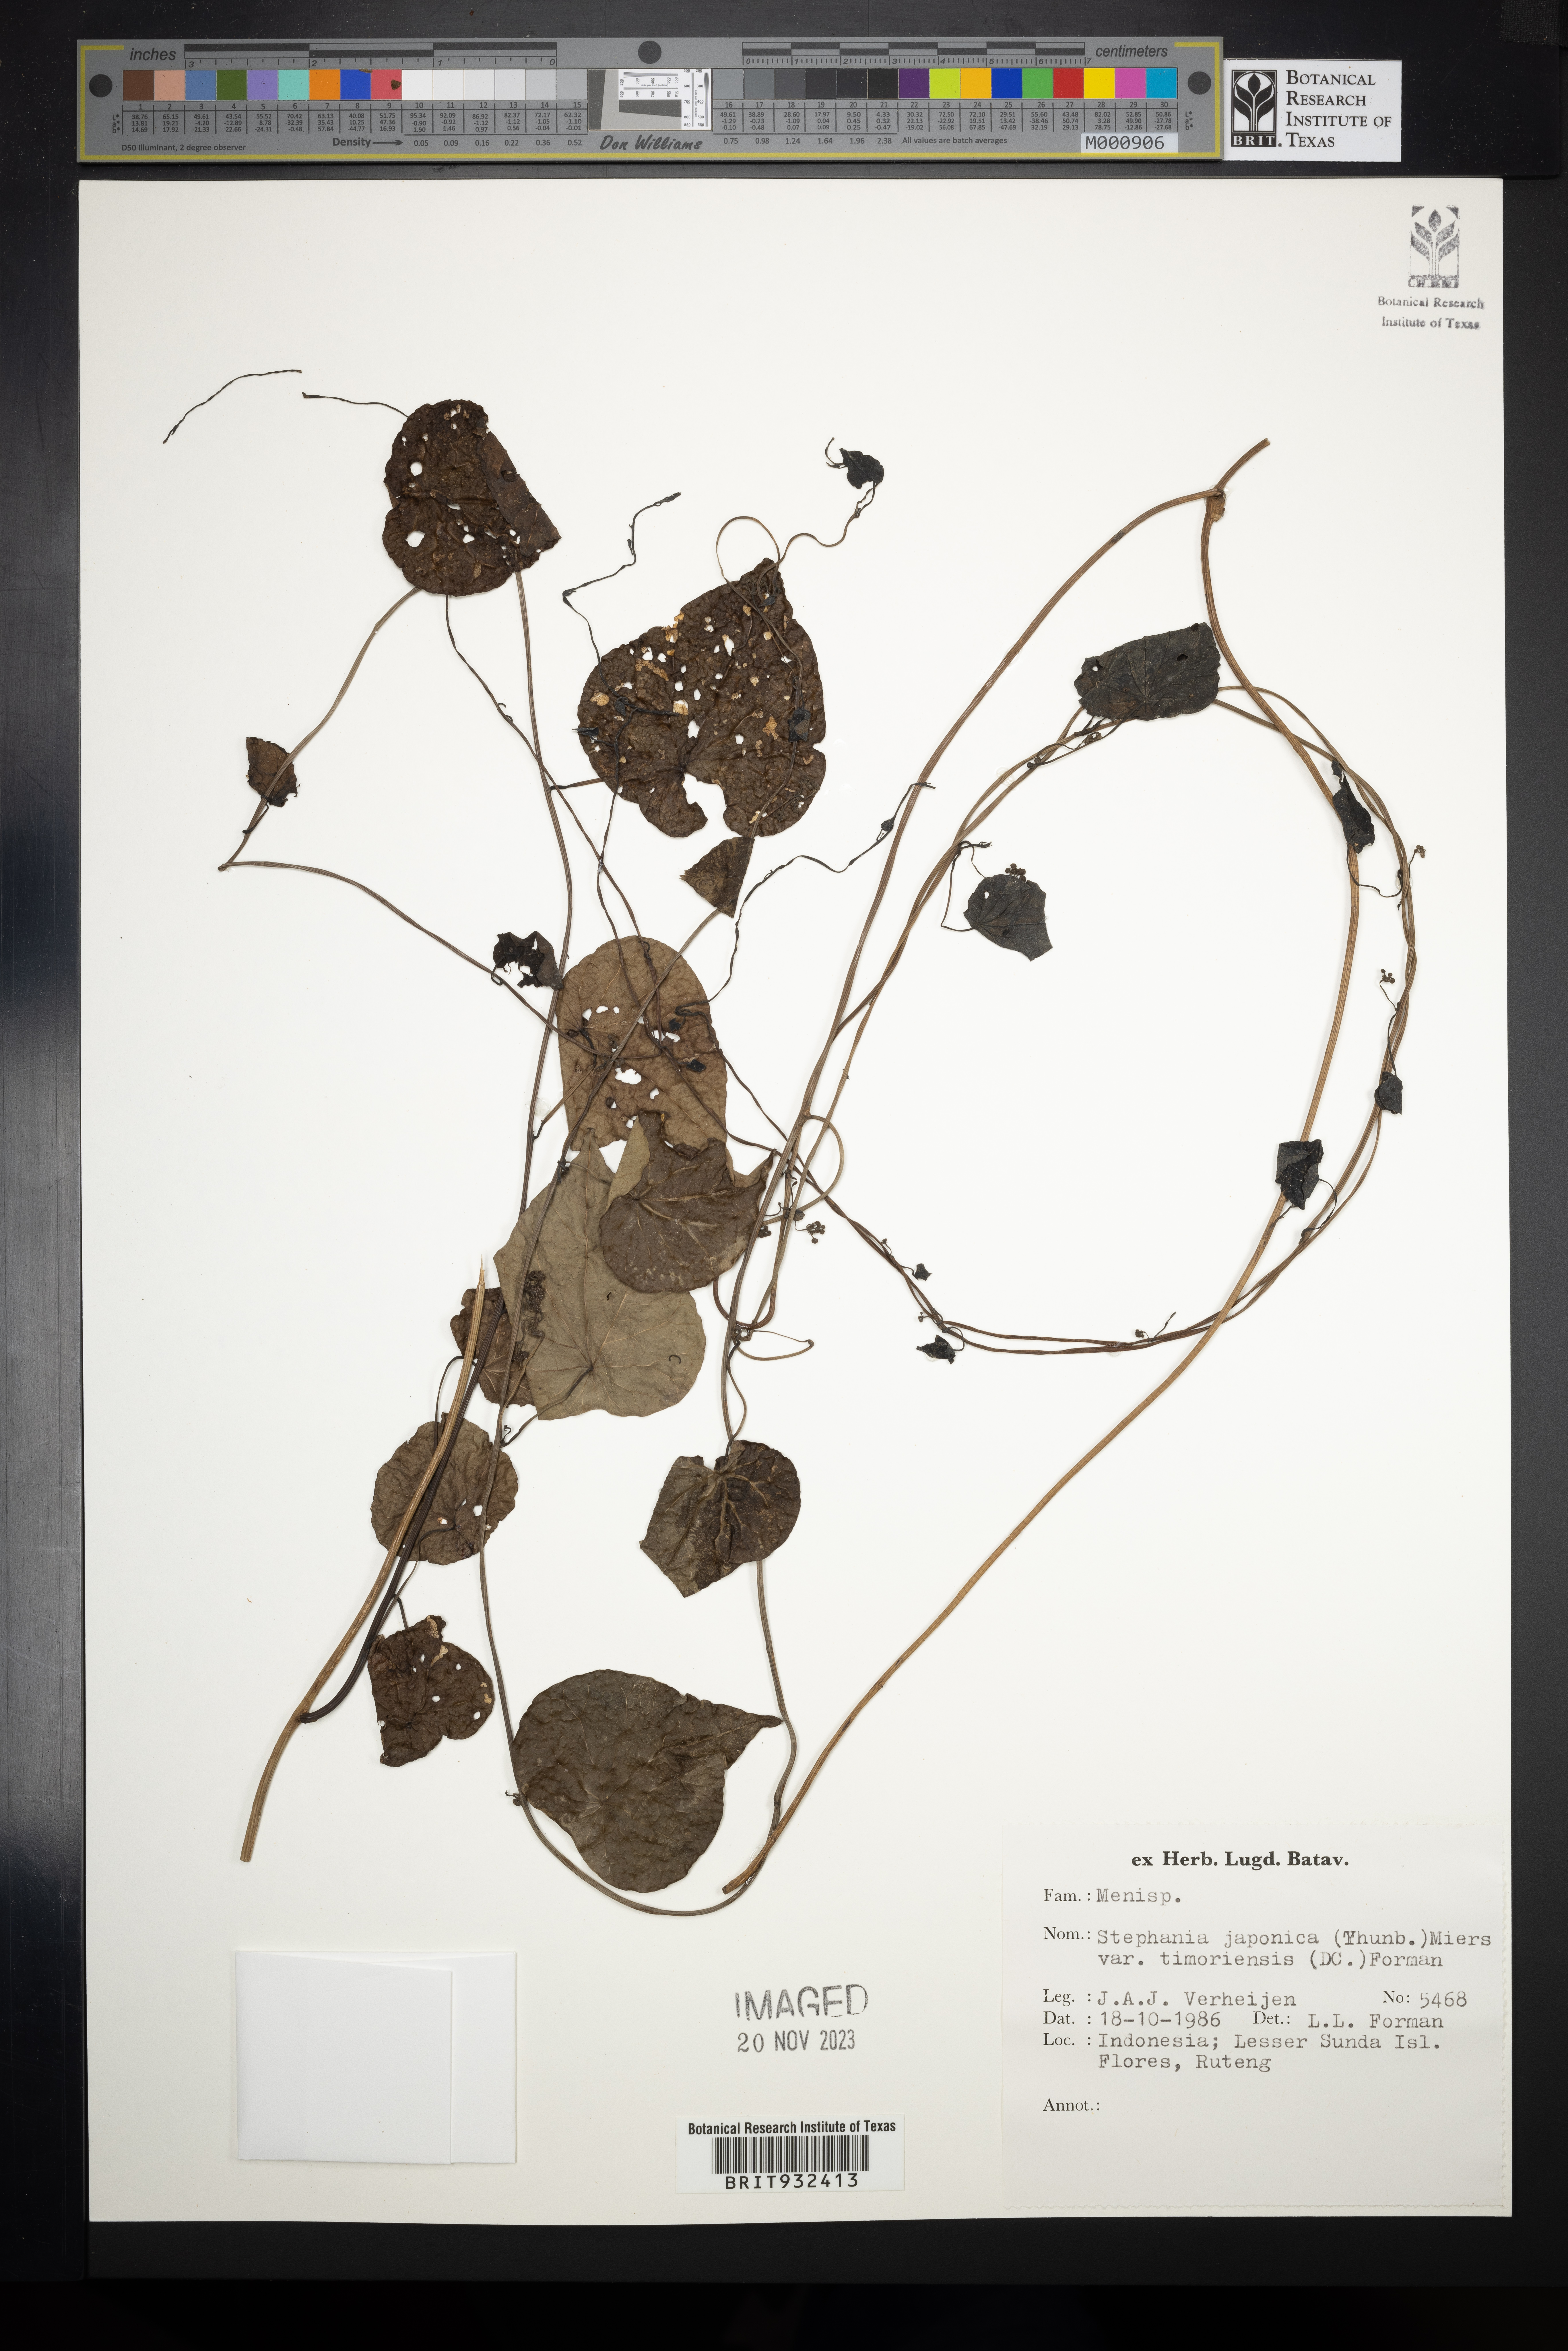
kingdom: Plantae
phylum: Tracheophyta
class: Magnoliopsida
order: Ranunculales
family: Menispermaceae
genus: Stephania
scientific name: Stephania japonica
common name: Snake vine
